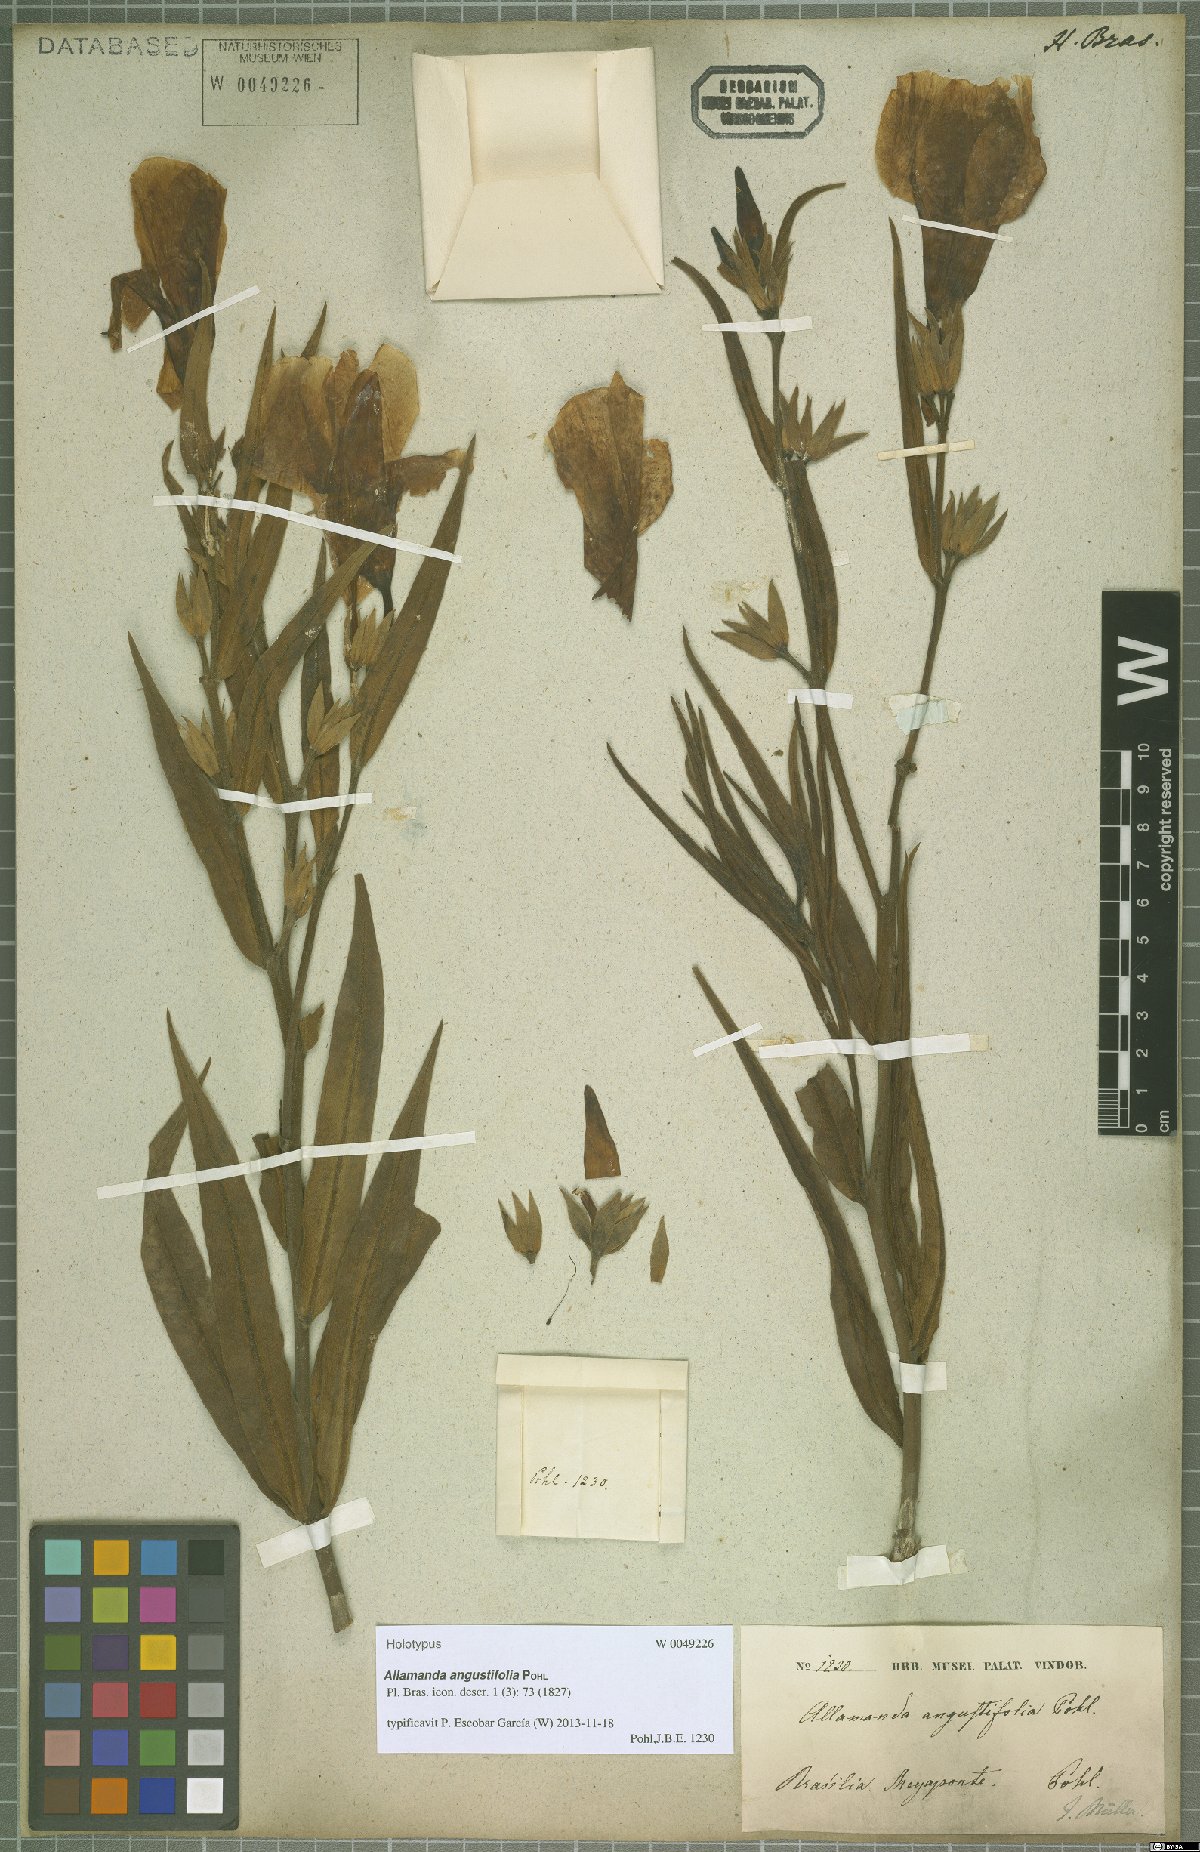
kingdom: Plantae
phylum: Tracheophyta
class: Magnoliopsida
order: Gentianales
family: Apocynaceae
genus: Allamanda
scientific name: Allamanda angustifolia
